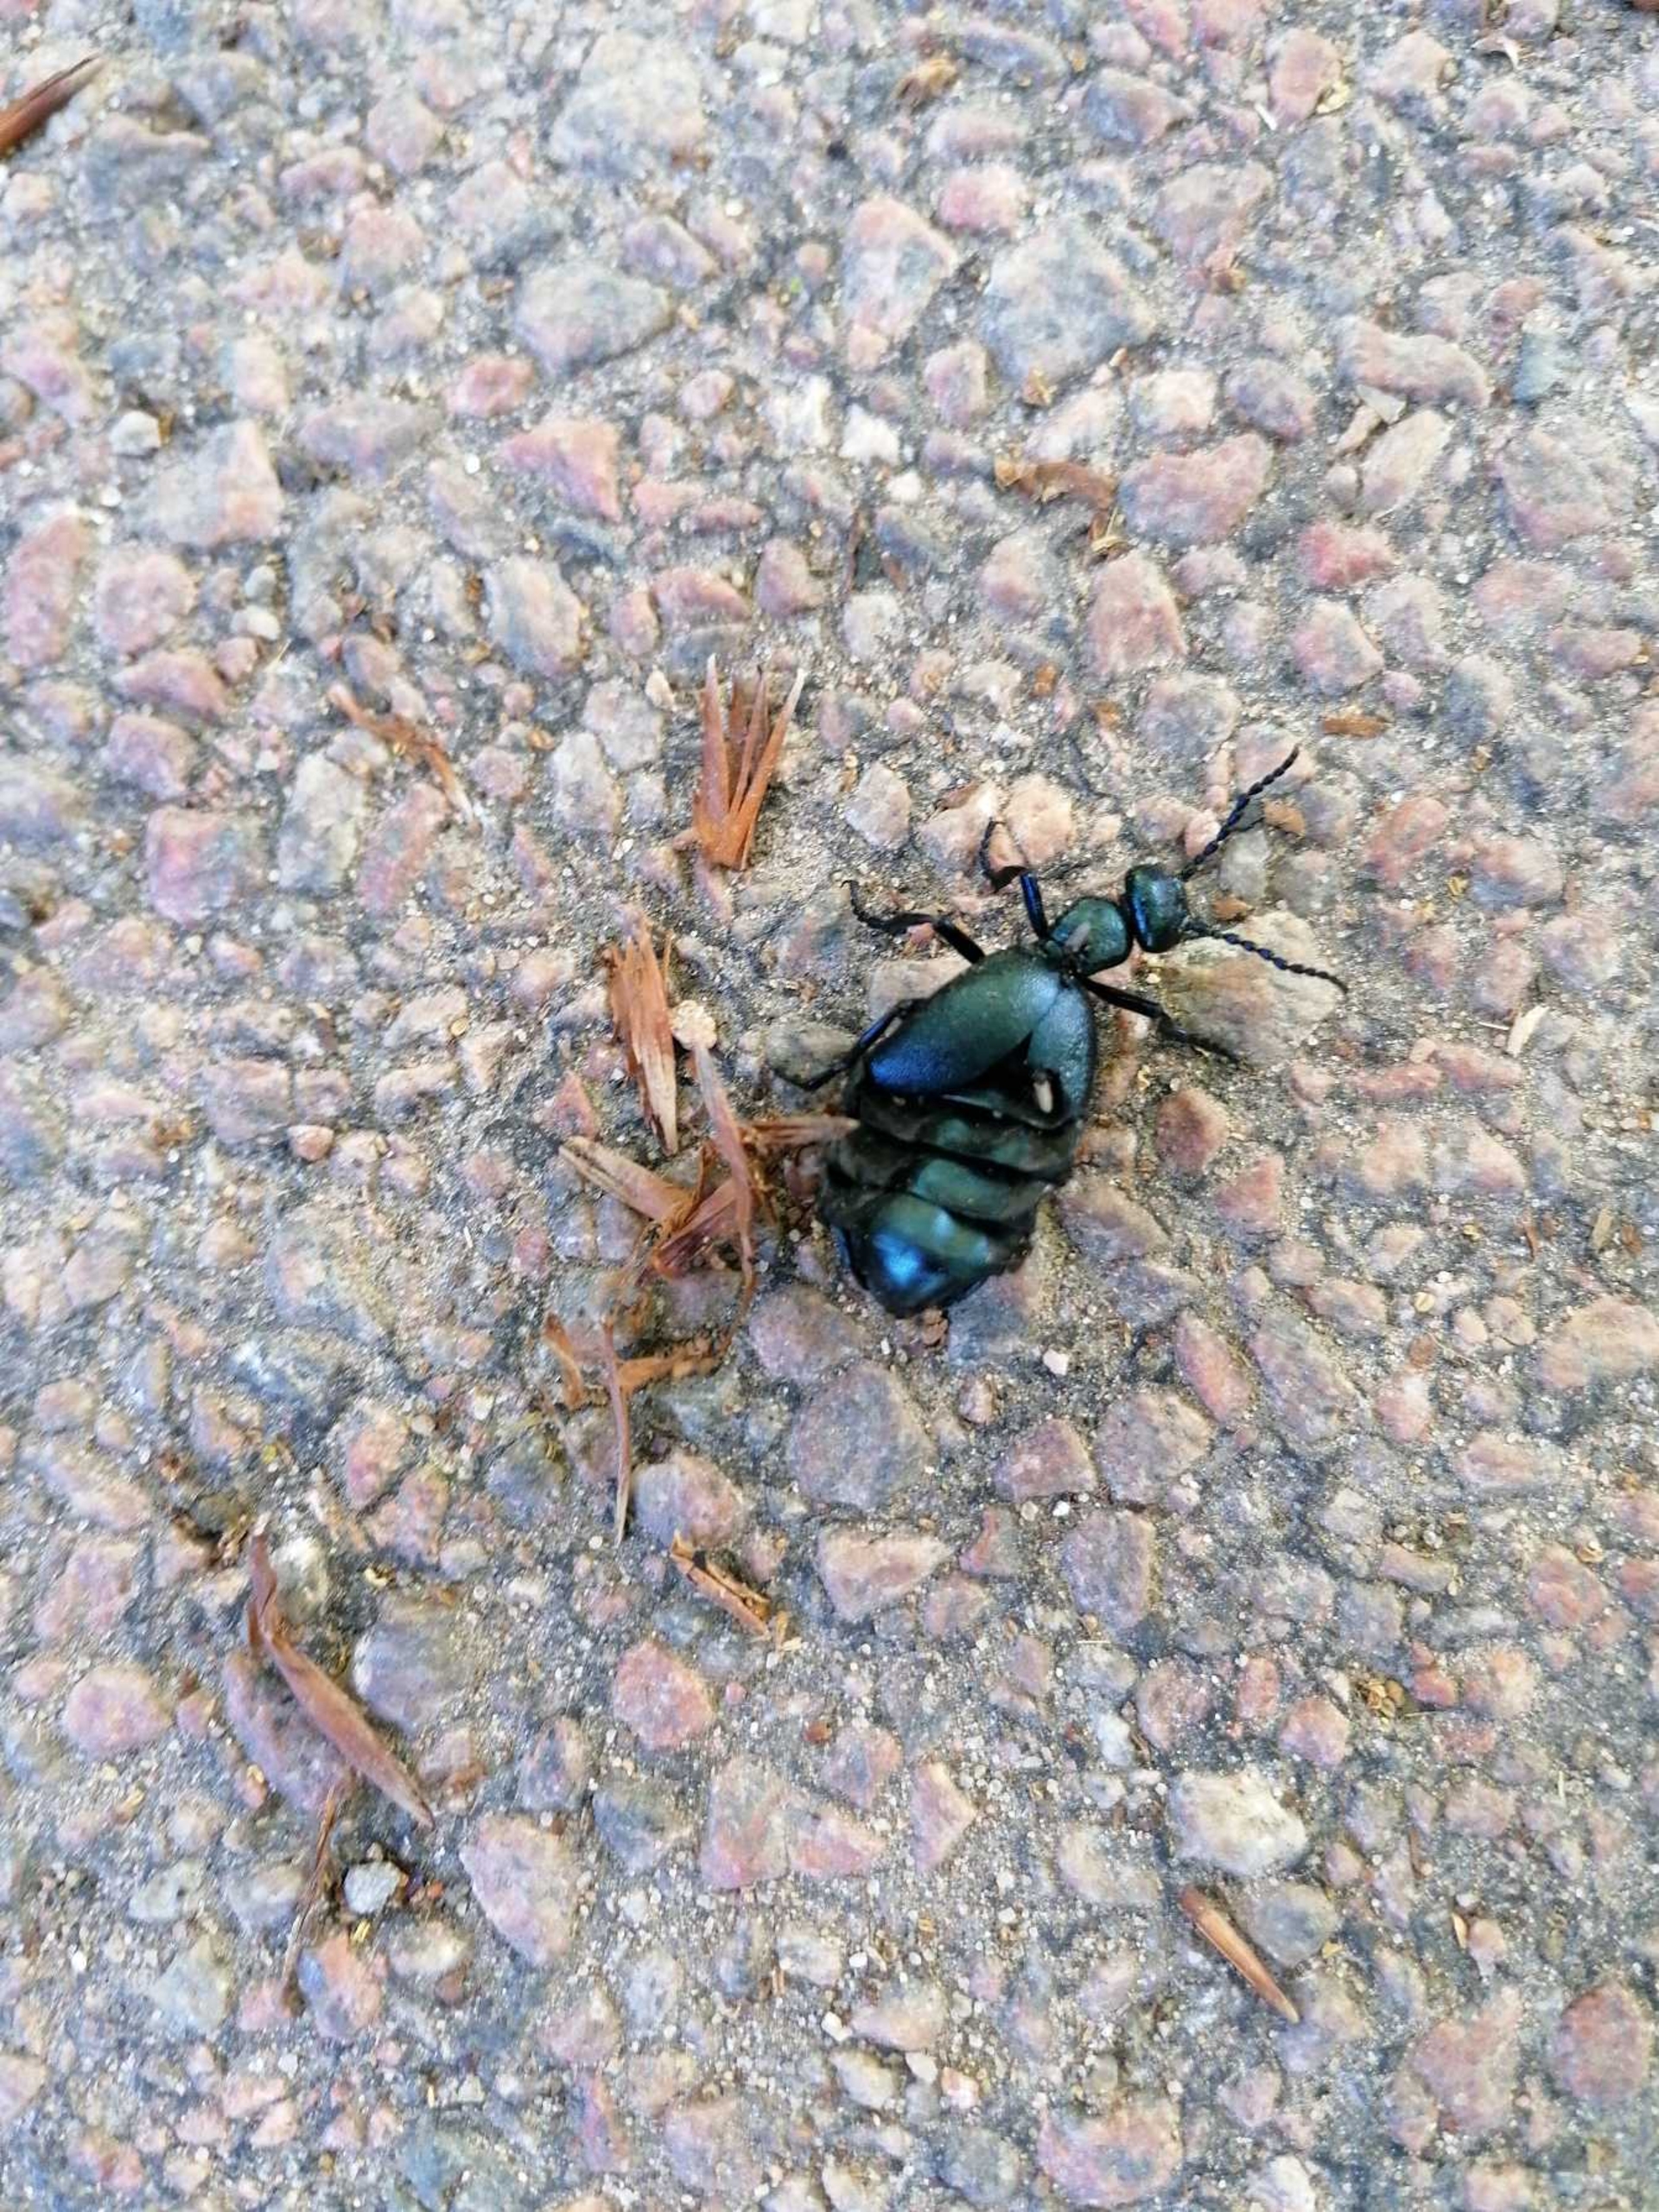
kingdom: Animalia
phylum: Arthropoda
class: Insecta
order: Coleoptera
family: Meloidae
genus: Meloe
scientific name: Meloe violaceus
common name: Blå oliebille
